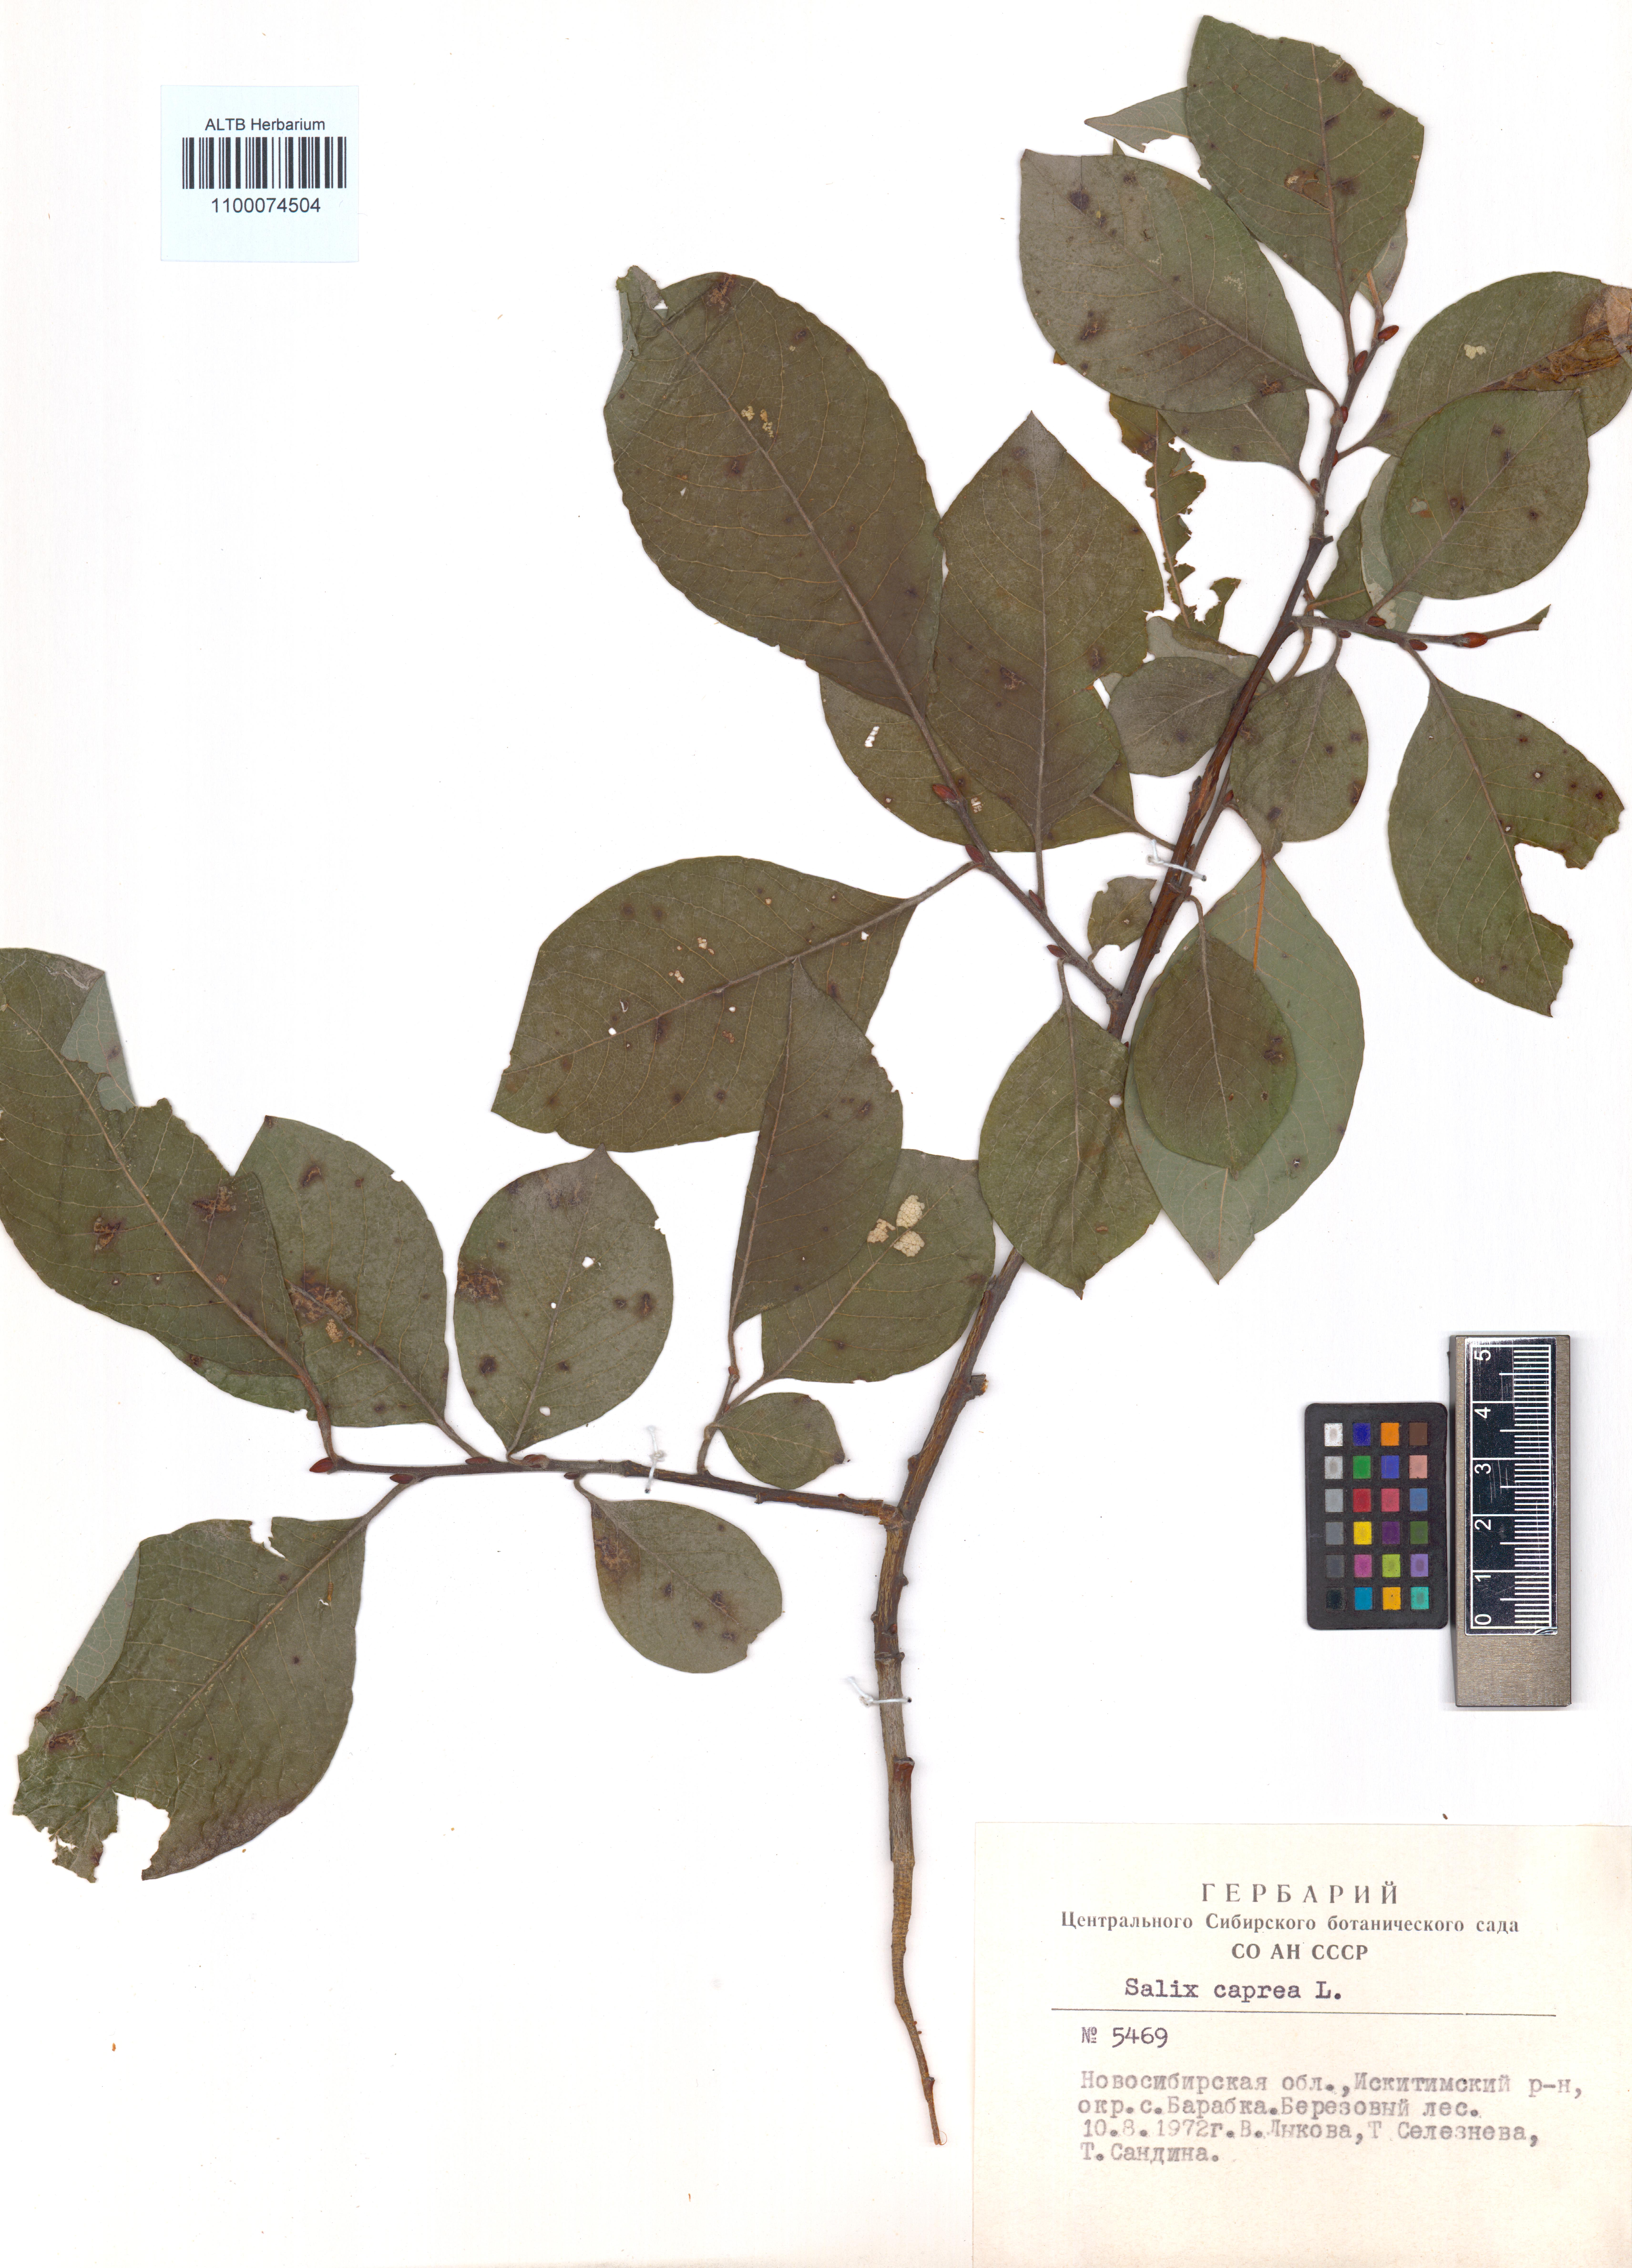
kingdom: Plantae
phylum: Tracheophyta
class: Magnoliopsida
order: Malpighiales
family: Salicaceae
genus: Salix
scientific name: Salix caprea
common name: Goat willow
